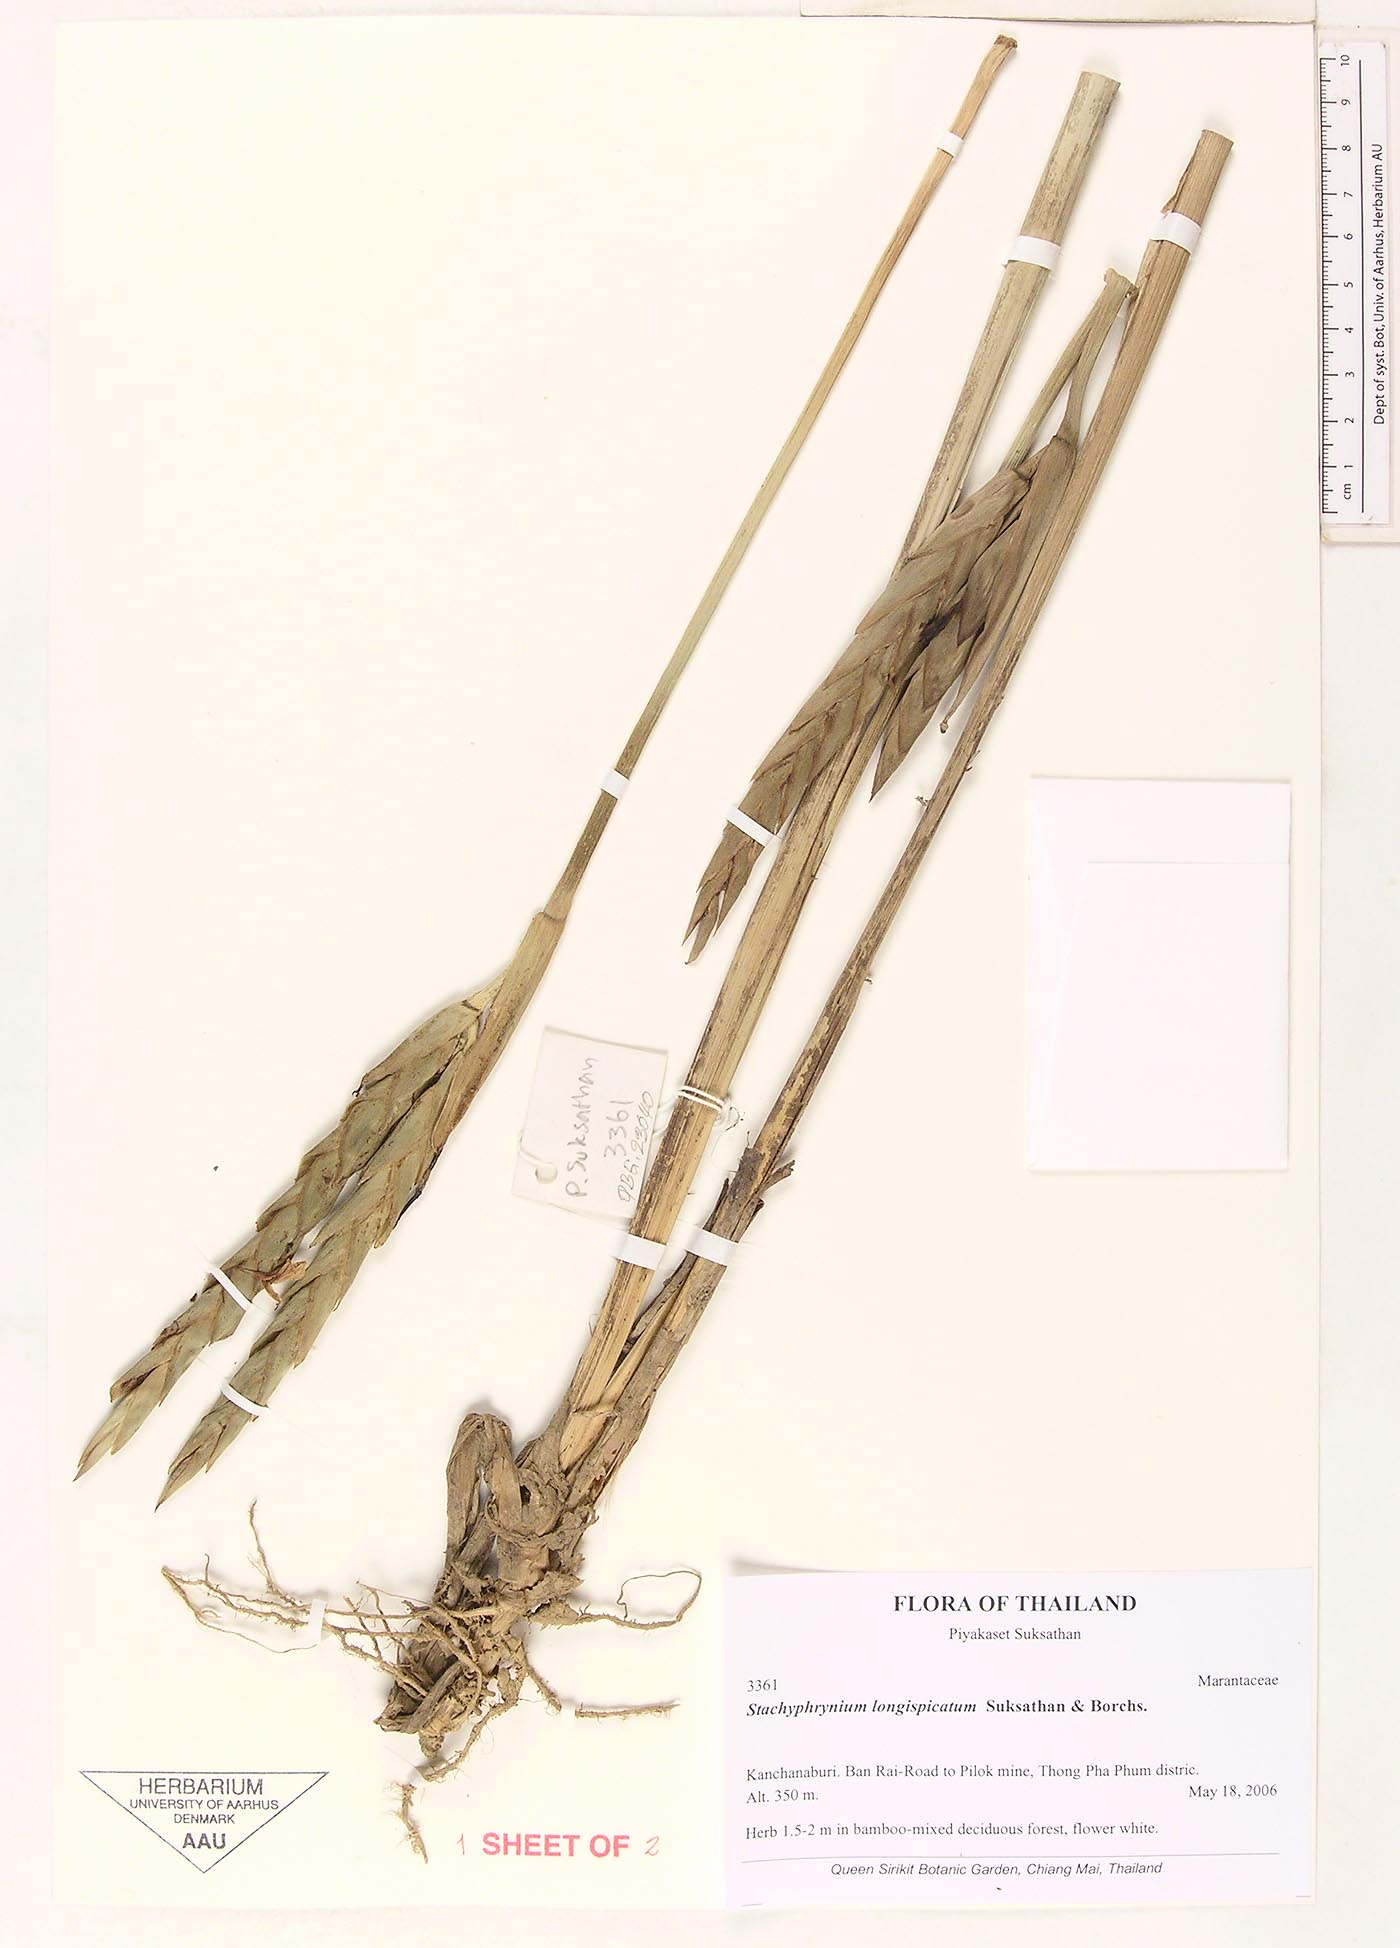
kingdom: Plantae
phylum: Tracheophyta
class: Liliopsida
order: Zingiberales
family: Marantaceae
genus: Stachyphrynium
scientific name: Stachyphrynium longispicatum
